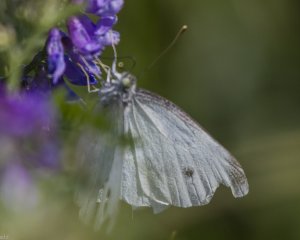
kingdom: Animalia
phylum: Arthropoda
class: Insecta
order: Lepidoptera
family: Pieridae
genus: Pieris
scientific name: Pieris rapae
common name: Cabbage White
